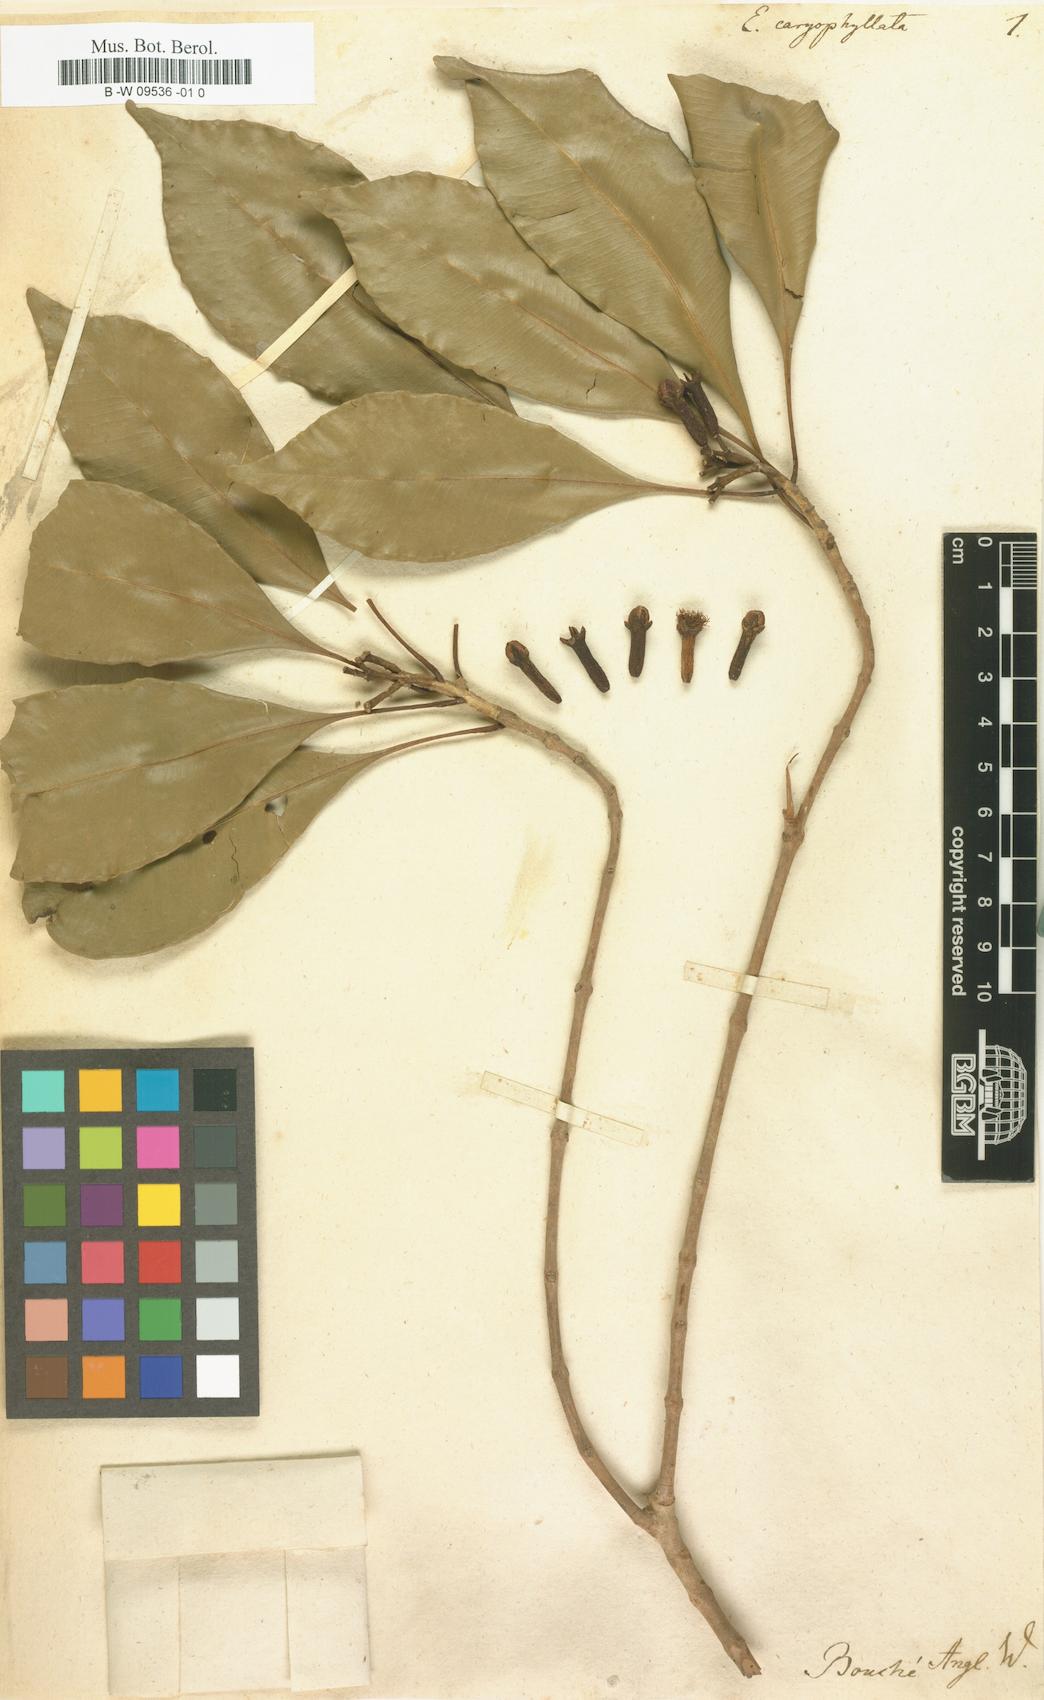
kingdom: Plantae
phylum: Tracheophyta
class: Magnoliopsida
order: Myrtales
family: Myrtaceae
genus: Syzygium
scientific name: Syzygium aromaticum
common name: Clove
